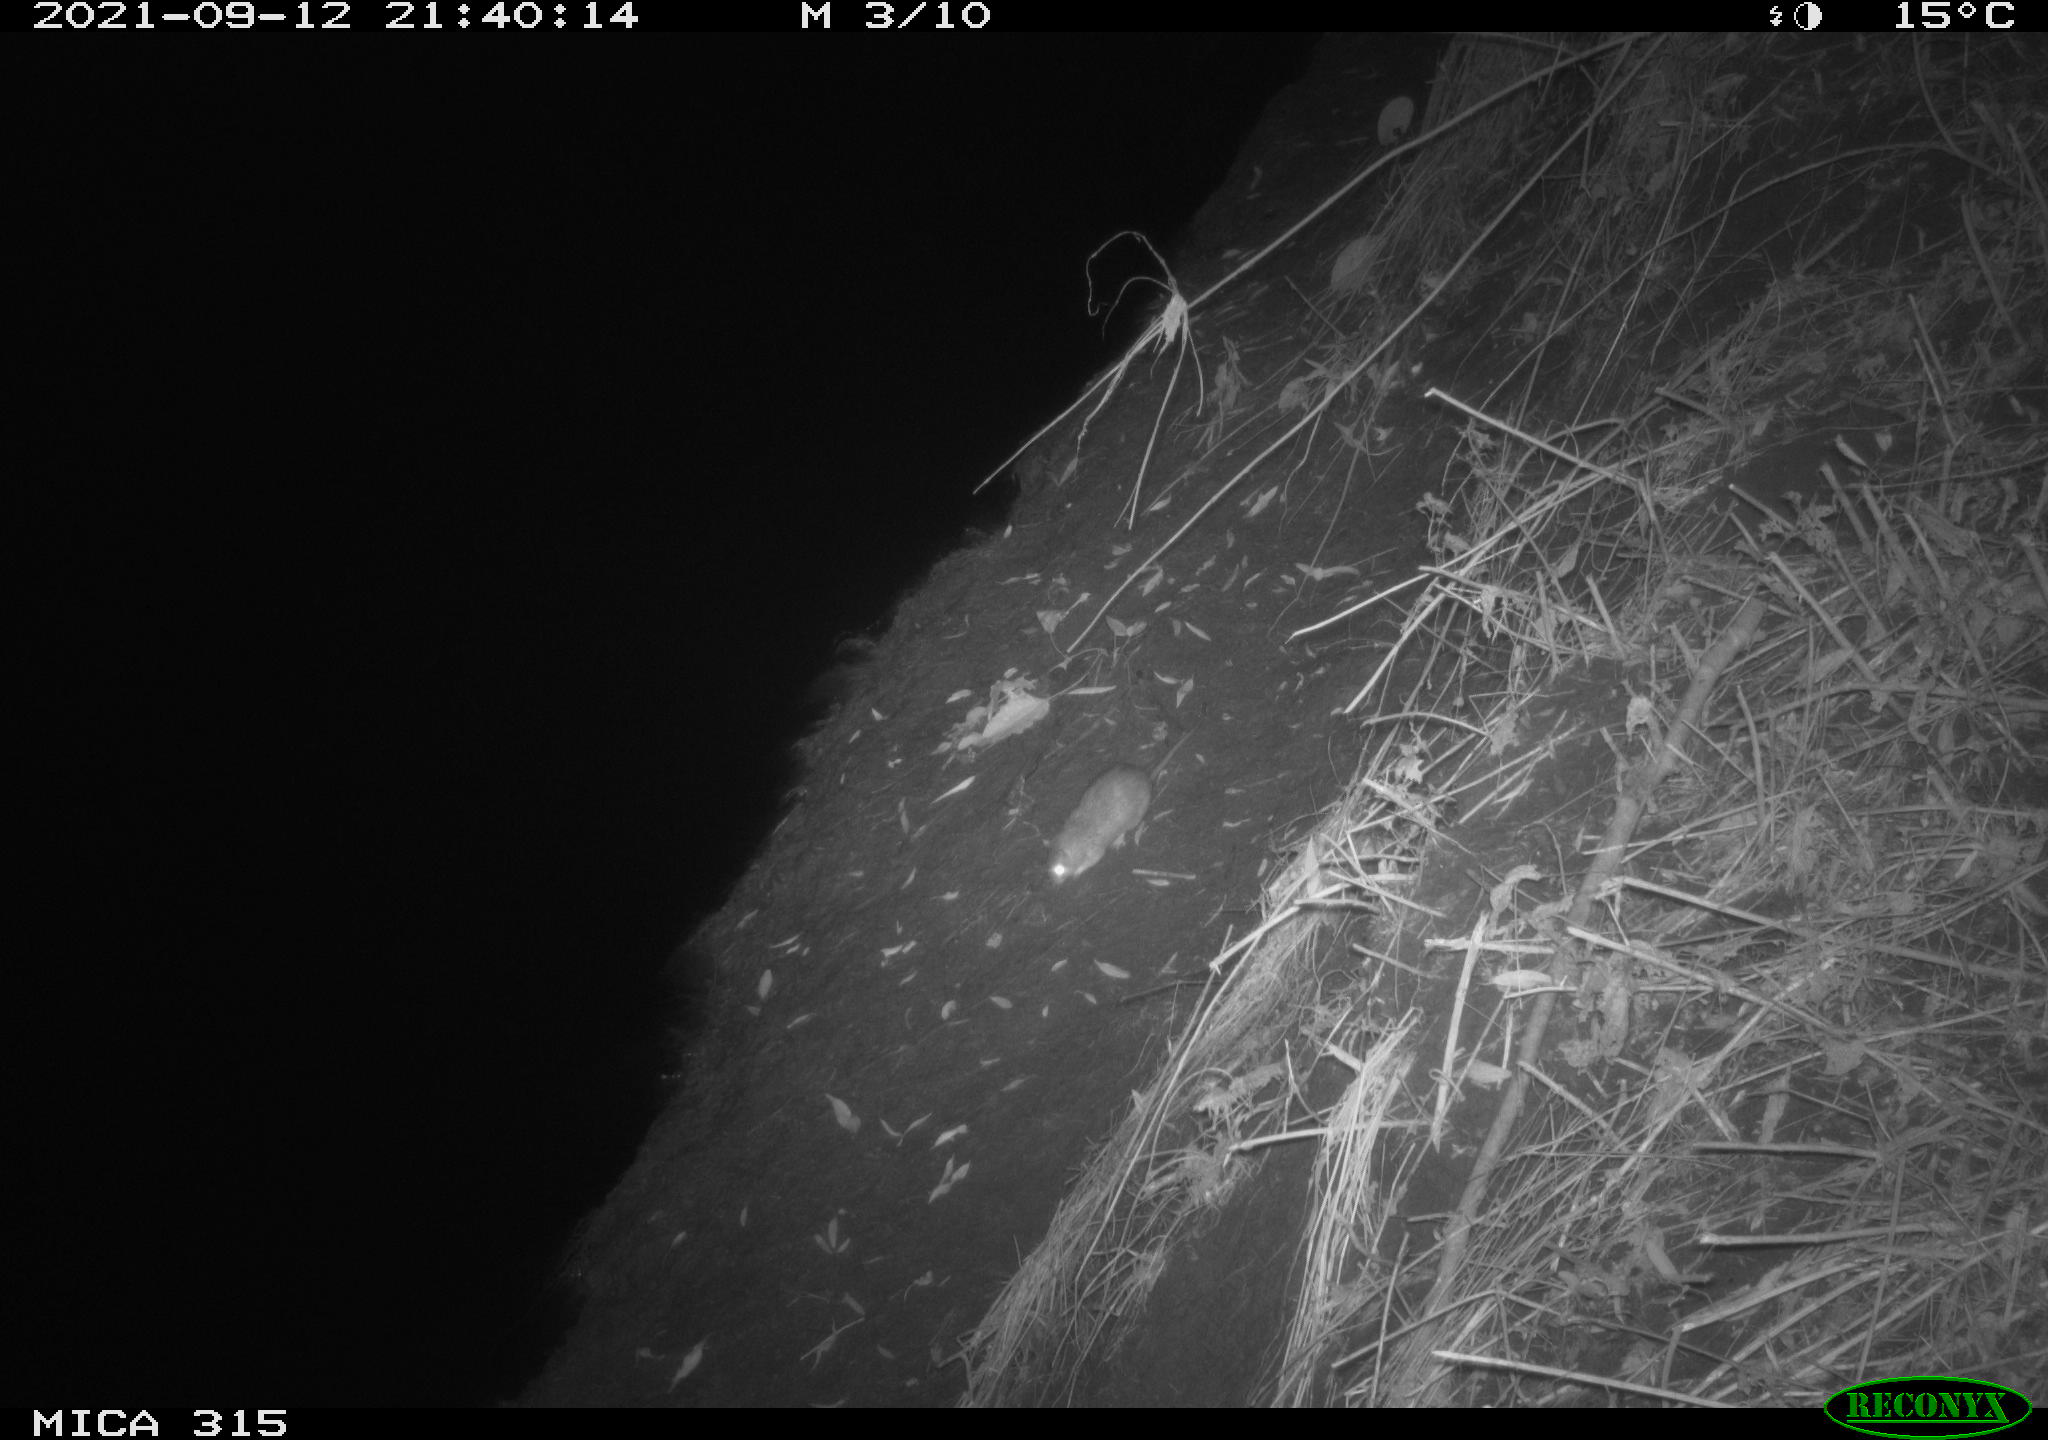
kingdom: Animalia
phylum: Chordata
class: Mammalia
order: Rodentia
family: Muridae
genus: Rattus
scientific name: Rattus norvegicus
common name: Brown rat
